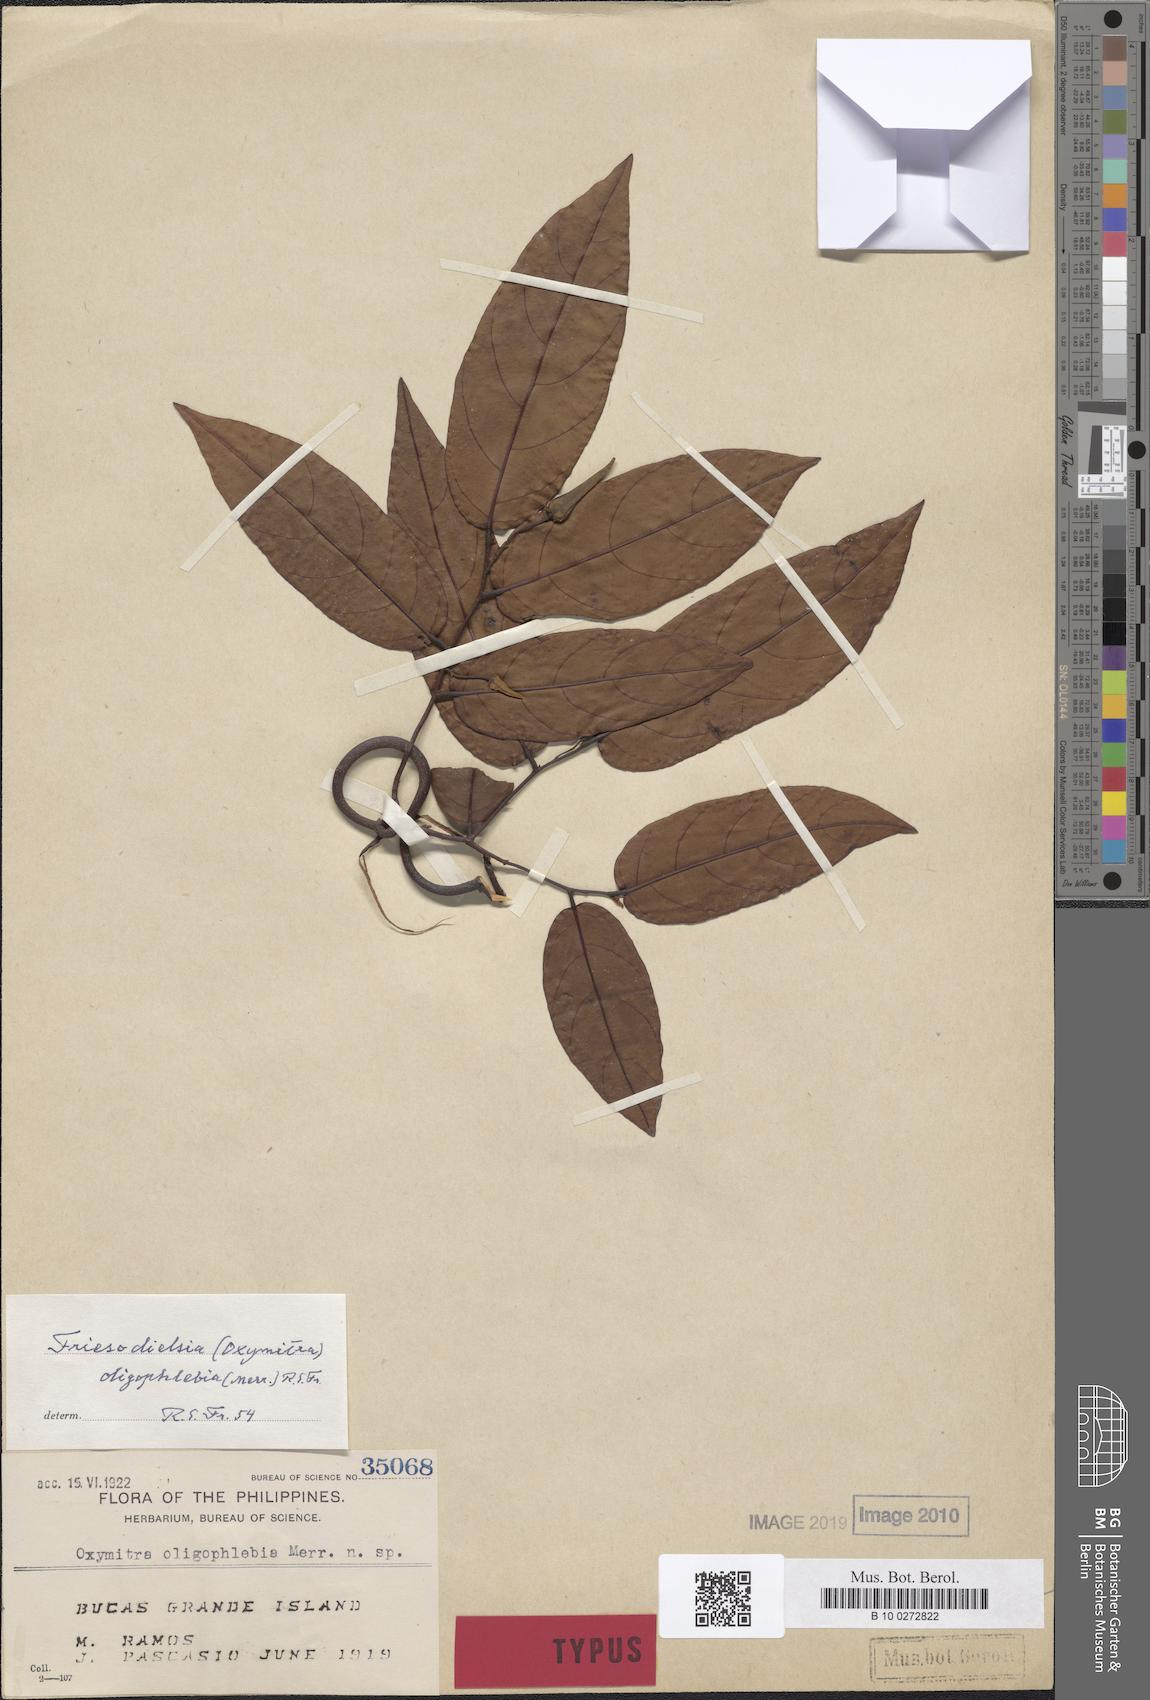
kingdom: Plantae
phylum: Tracheophyta
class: Magnoliopsida
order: Magnoliales
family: Annonaceae
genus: Friesodielsia
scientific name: Friesodielsia oligophlebia
